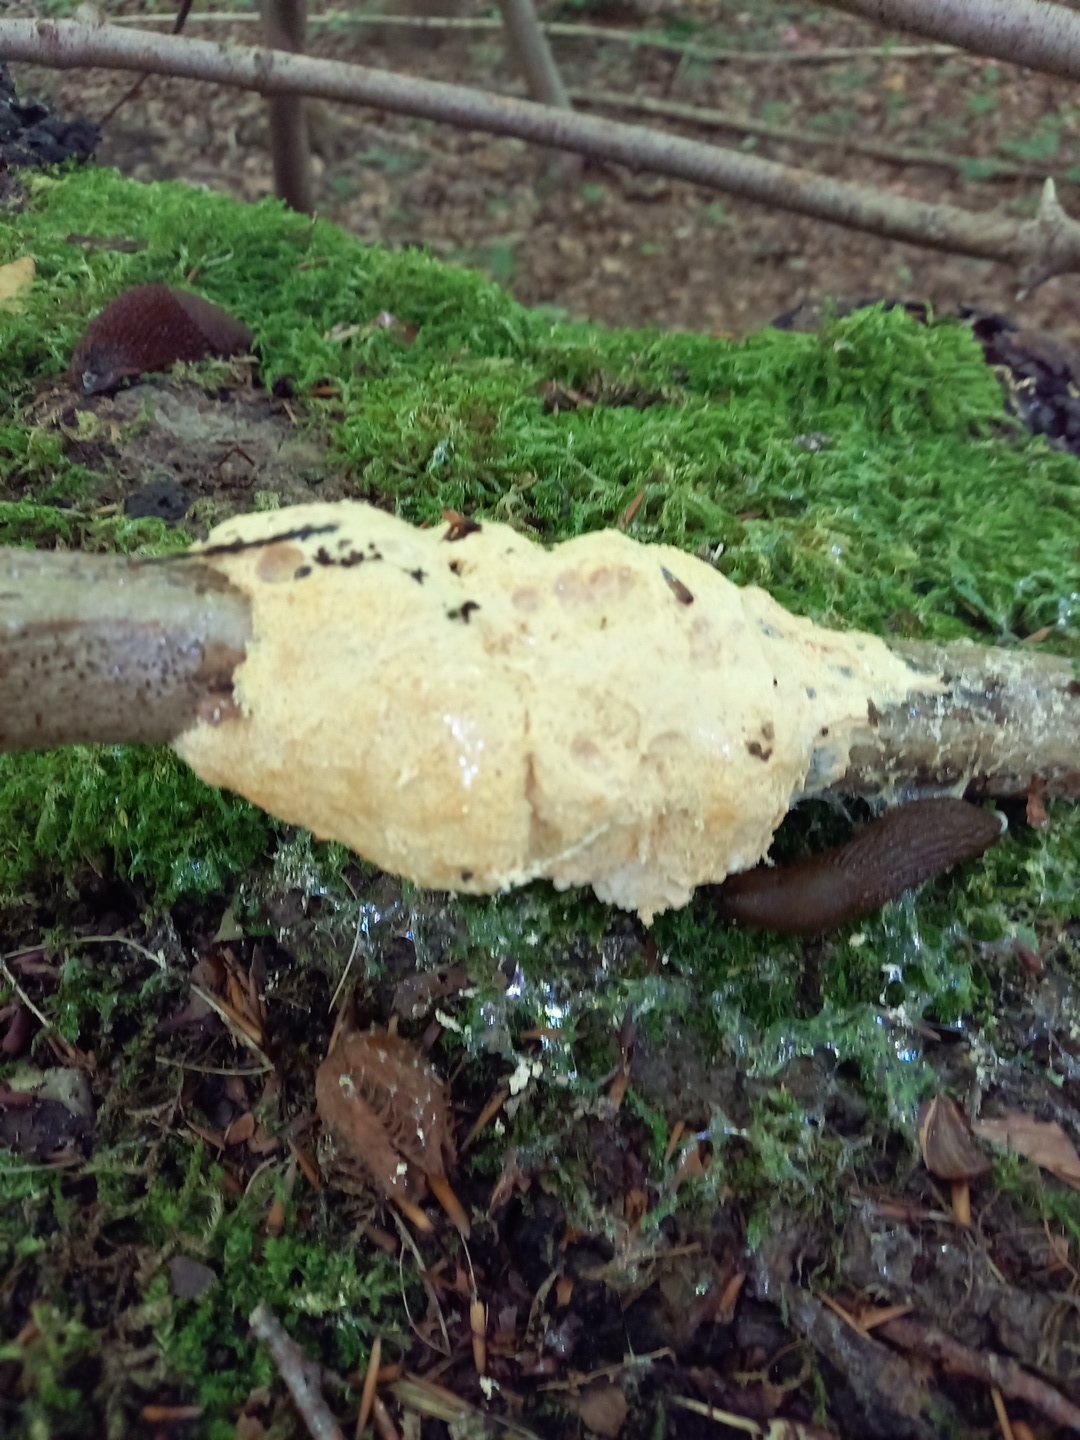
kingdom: Protozoa
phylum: Mycetozoa
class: Myxomycetes
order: Physarales
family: Physaraceae
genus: Fuligo
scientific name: Fuligo septica
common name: gul troldsmør
